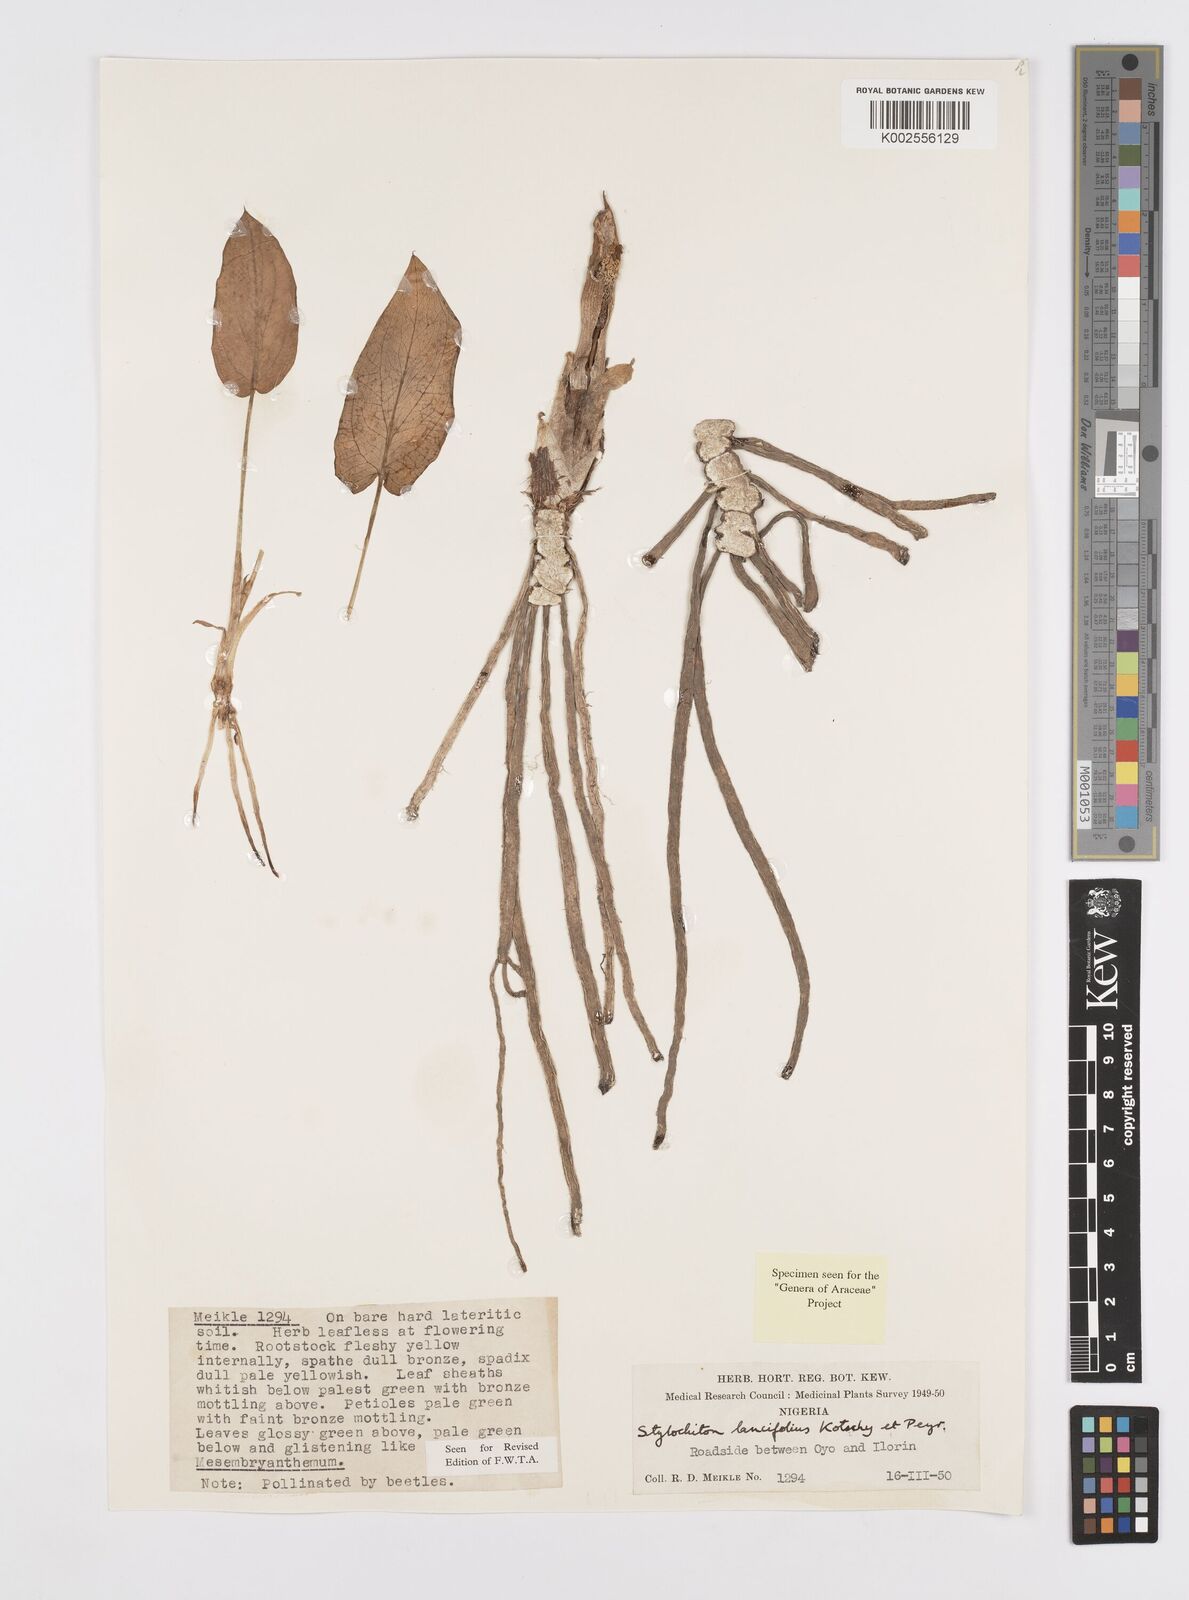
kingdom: Plantae
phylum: Tracheophyta
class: Liliopsida
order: Alismatales
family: Araceae
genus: Stylochaeton
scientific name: Stylochaeton lancifolium
